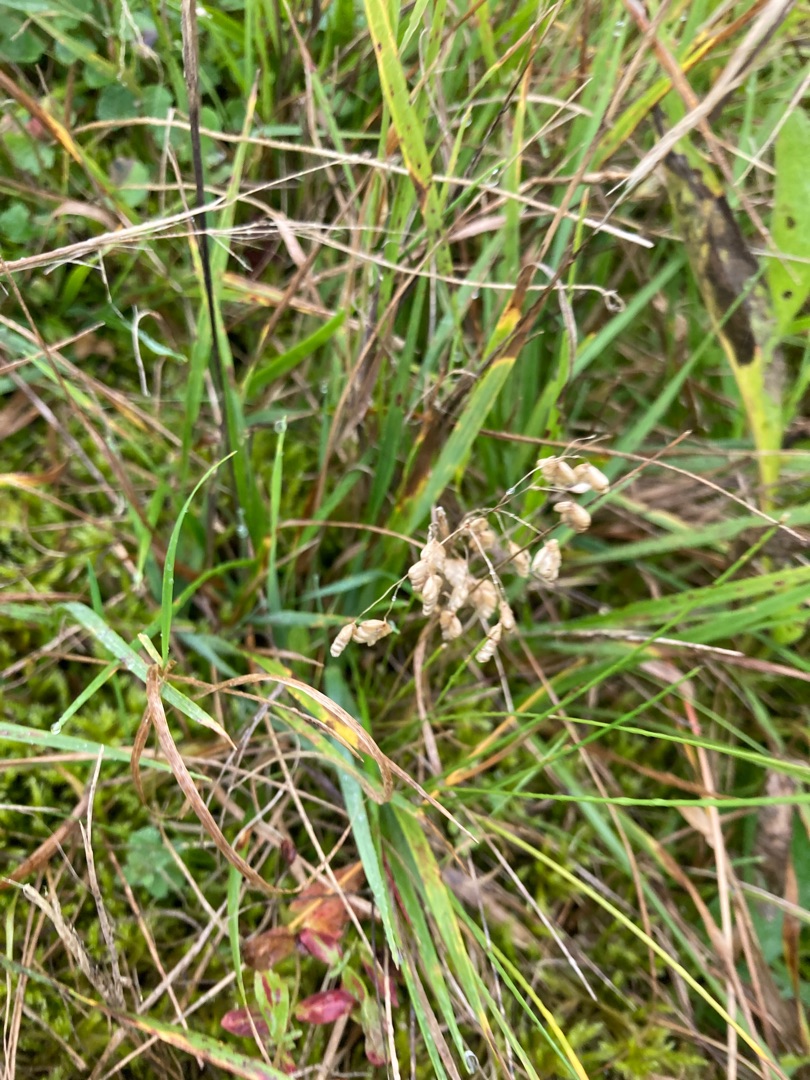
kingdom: Plantae
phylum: Tracheophyta
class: Liliopsida
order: Poales
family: Poaceae
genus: Briza
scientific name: Briza media
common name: Hjertegræs
